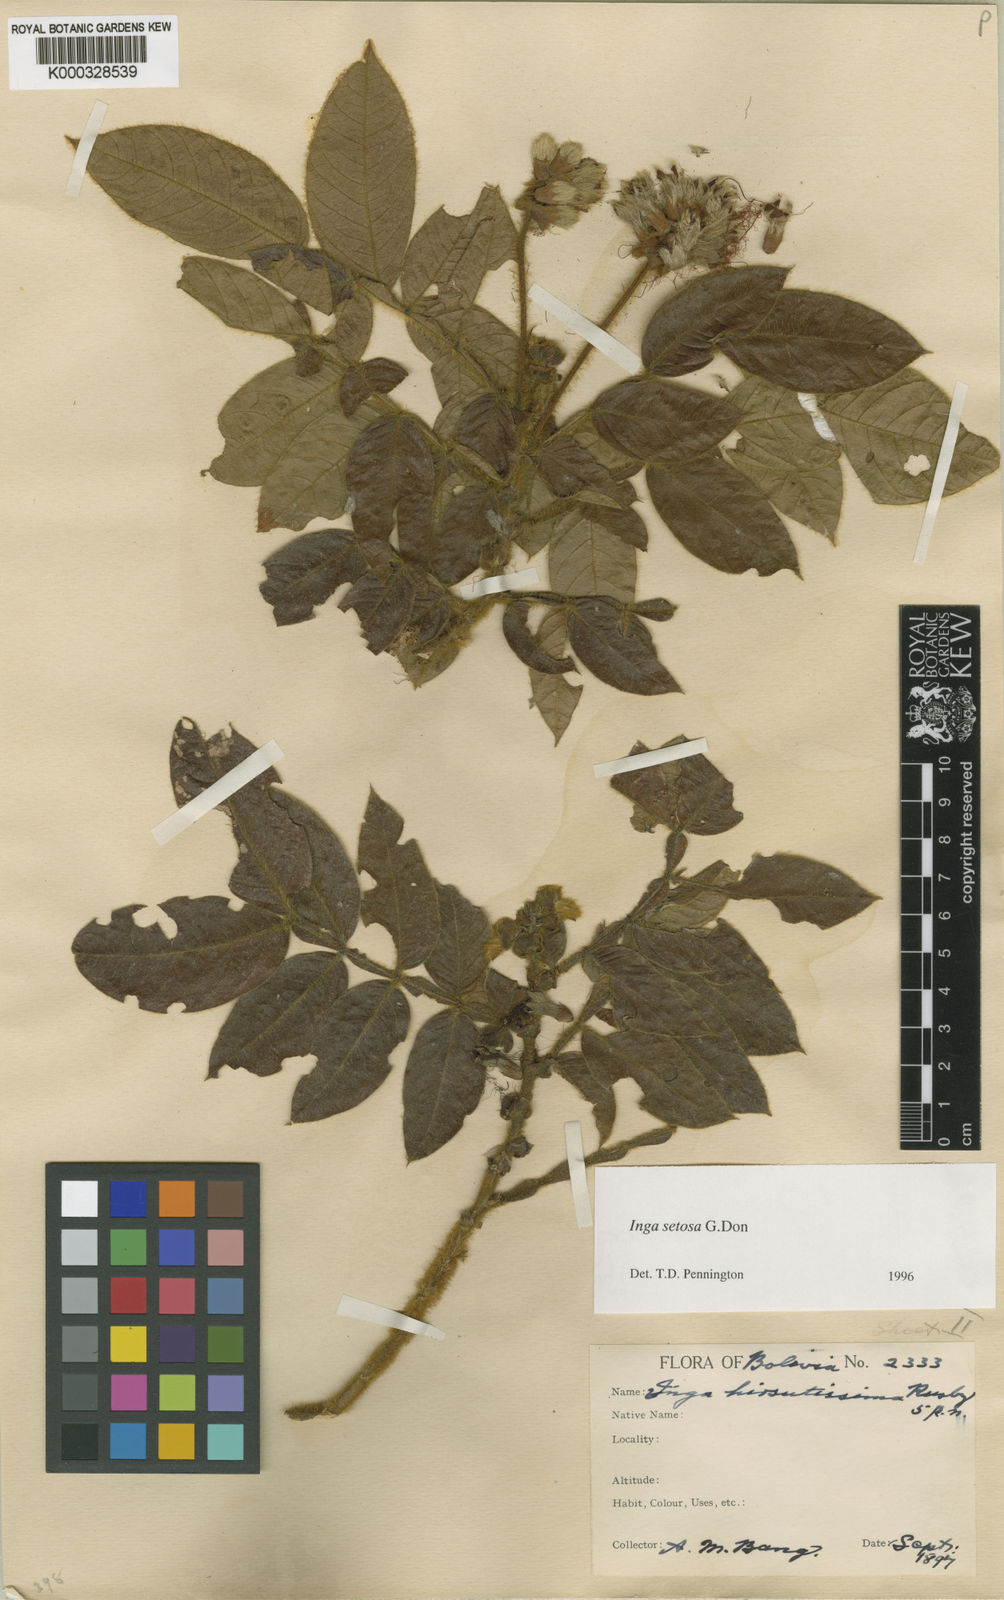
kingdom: Plantae
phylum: Tracheophyta
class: Magnoliopsida
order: Fabales
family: Fabaceae
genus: Inga
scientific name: Inga setosa
